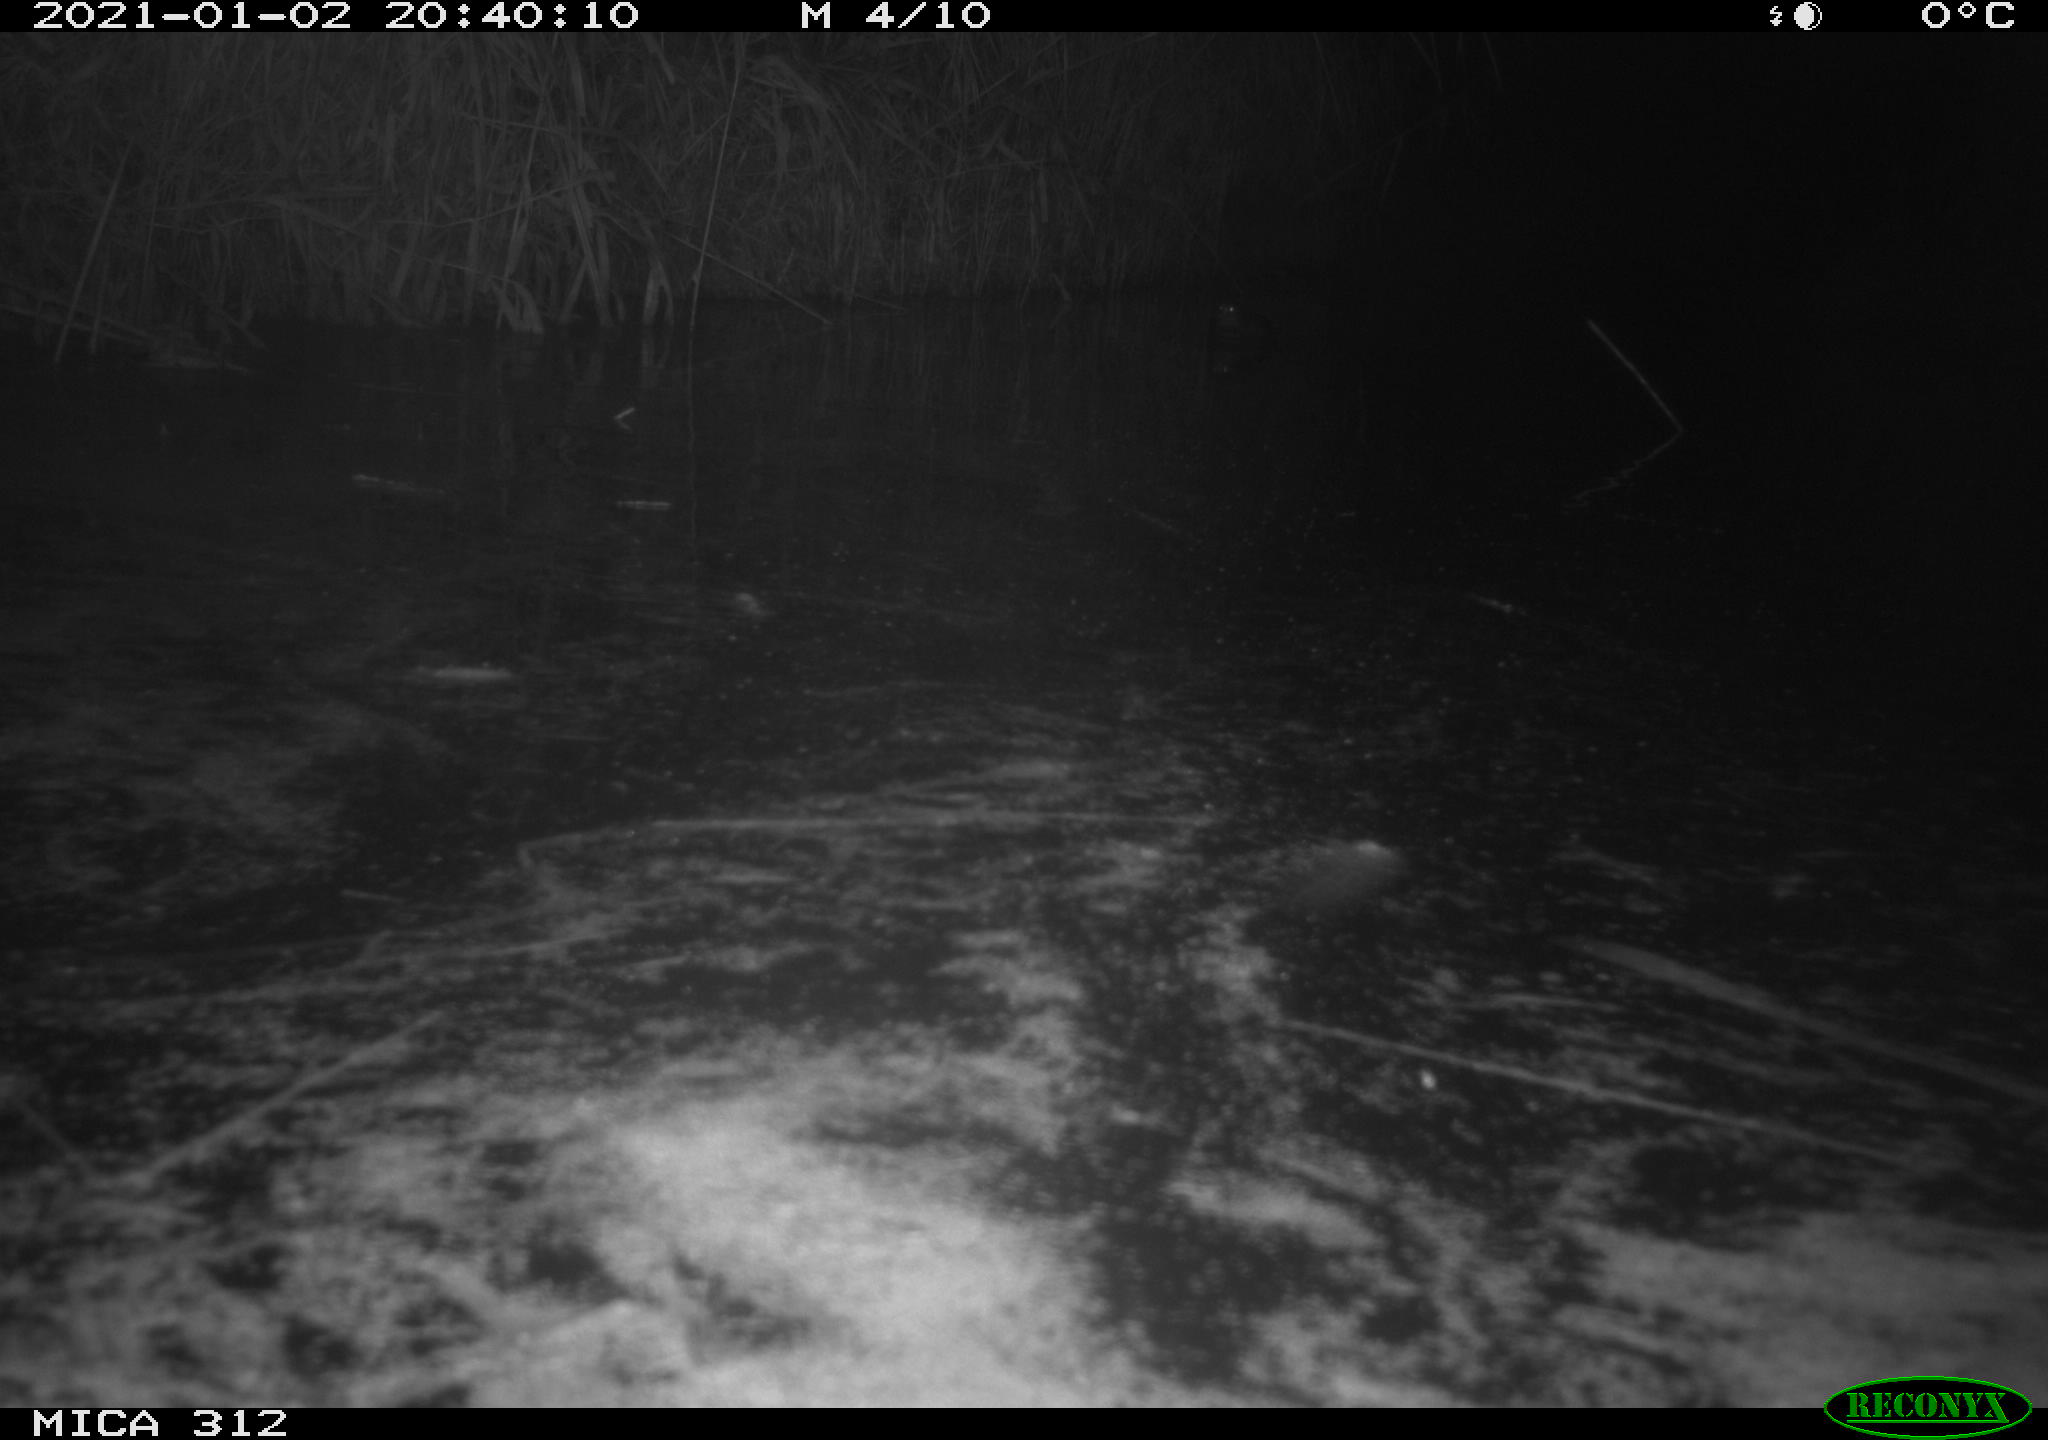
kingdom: Animalia
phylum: Chordata
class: Mammalia
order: Rodentia
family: Muridae
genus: Rattus
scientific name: Rattus norvegicus
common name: Brown rat
